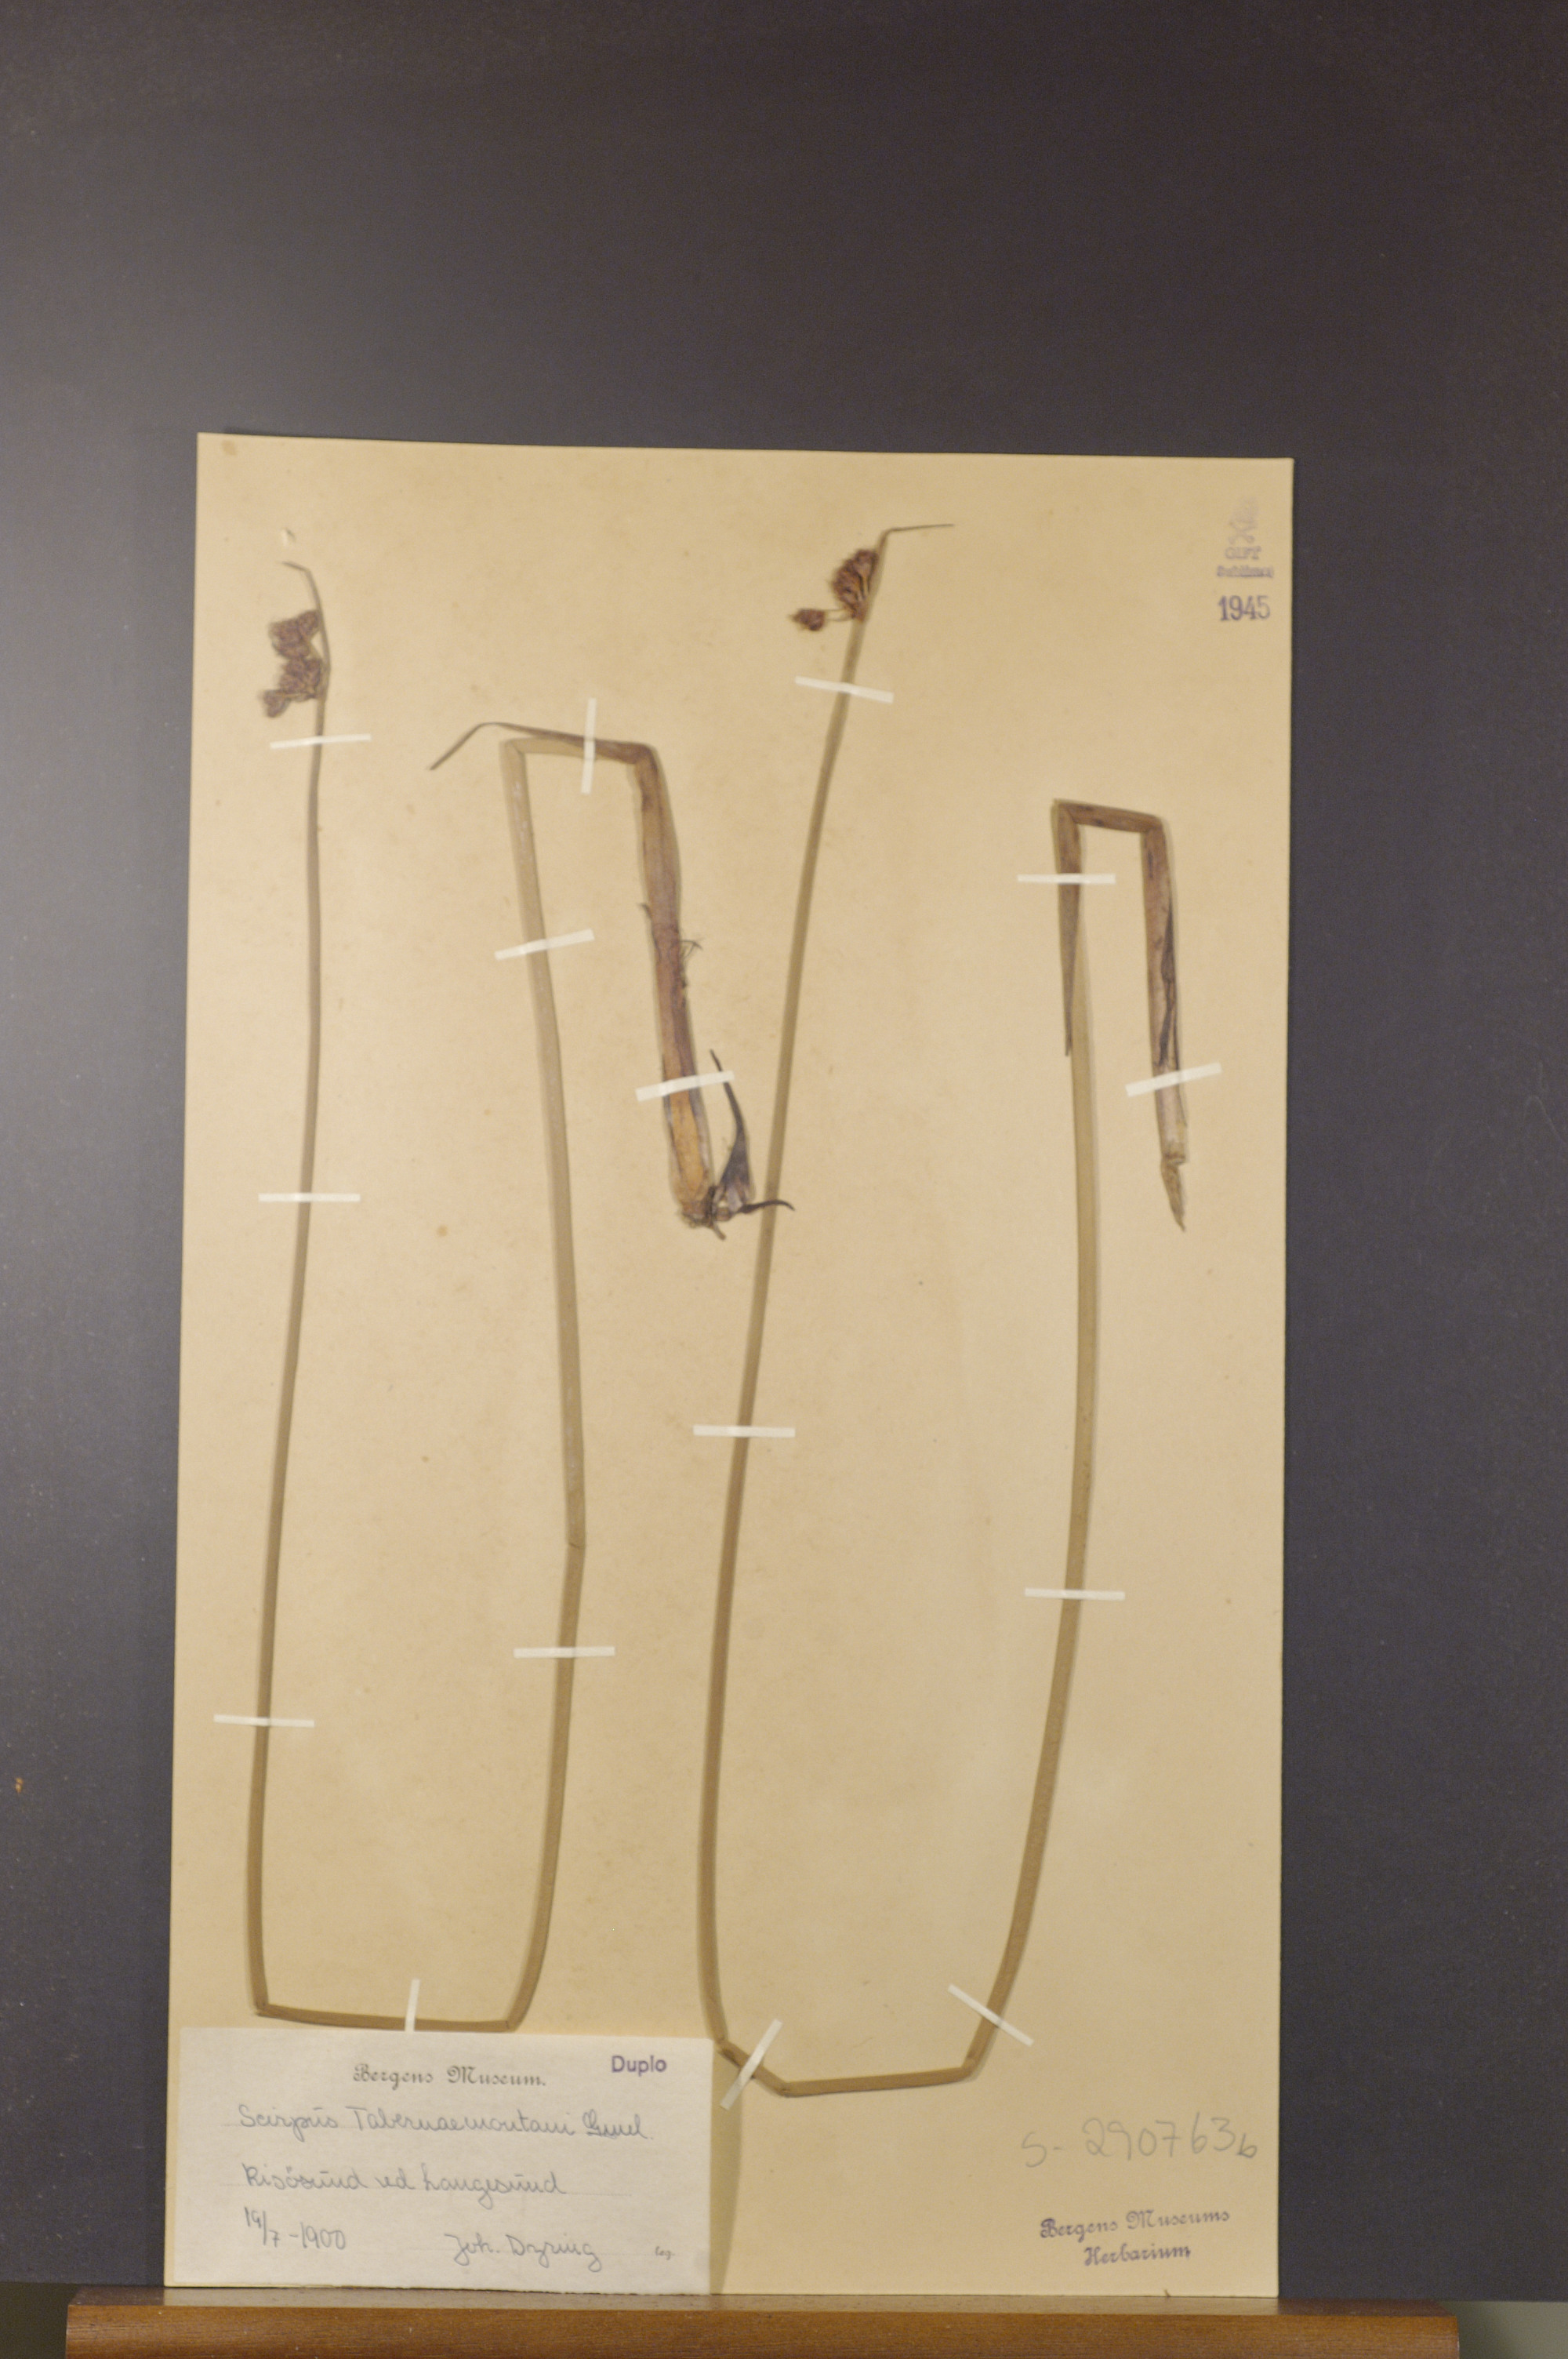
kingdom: Plantae
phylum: Tracheophyta
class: Liliopsida
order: Poales
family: Cyperaceae
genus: Schoenoplectus
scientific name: Schoenoplectus tabernaemontani
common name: Grey club-rush
